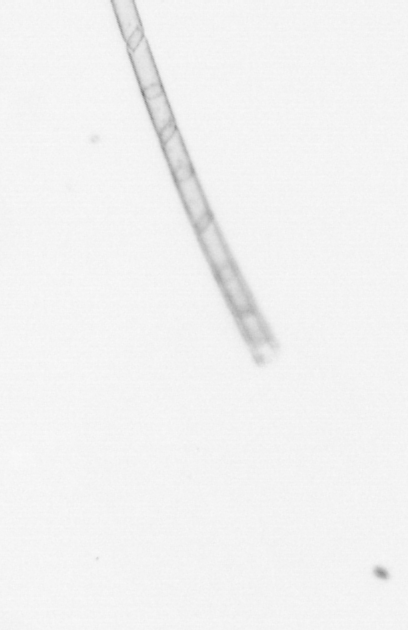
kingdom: Chromista
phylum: Ochrophyta
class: Bacillariophyceae
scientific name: Bacillariophyceae
